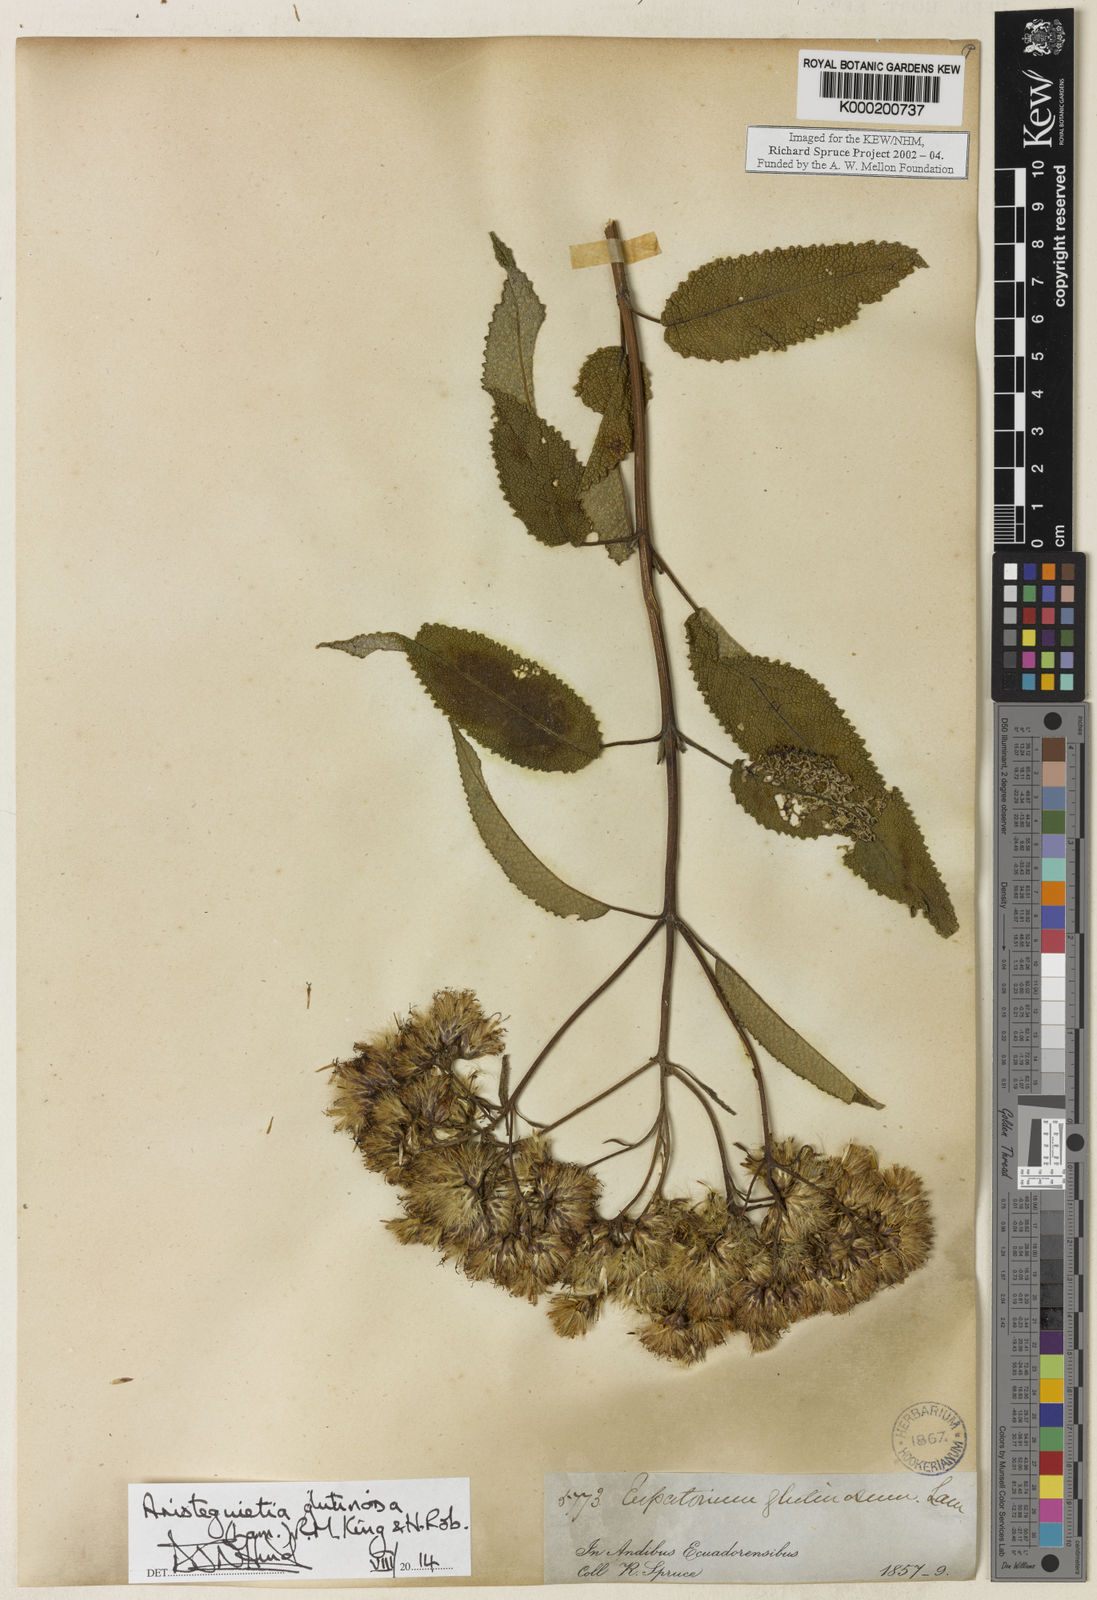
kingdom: Plantae
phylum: Tracheophyta
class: Magnoliopsida
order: Asterales
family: Asteraceae
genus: Aristeguietia
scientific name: Aristeguietia glutinosa
